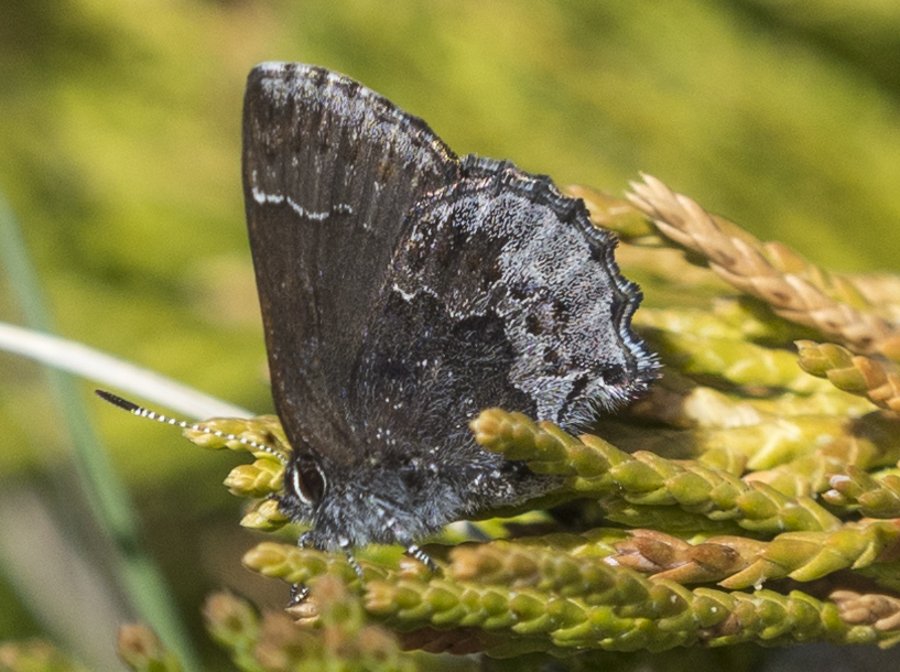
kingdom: Animalia
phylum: Arthropoda
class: Insecta
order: Lepidoptera
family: Lycaenidae
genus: Callophrys
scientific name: Callophrys polios
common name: Hoary Elfin
